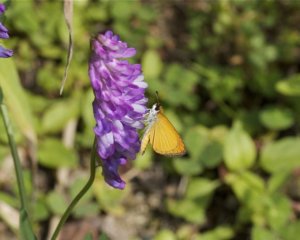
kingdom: Animalia
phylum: Arthropoda
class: Insecta
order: Lepidoptera
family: Hesperiidae
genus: Ancyloxypha
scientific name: Ancyloxypha numitor
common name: Least Skipper
